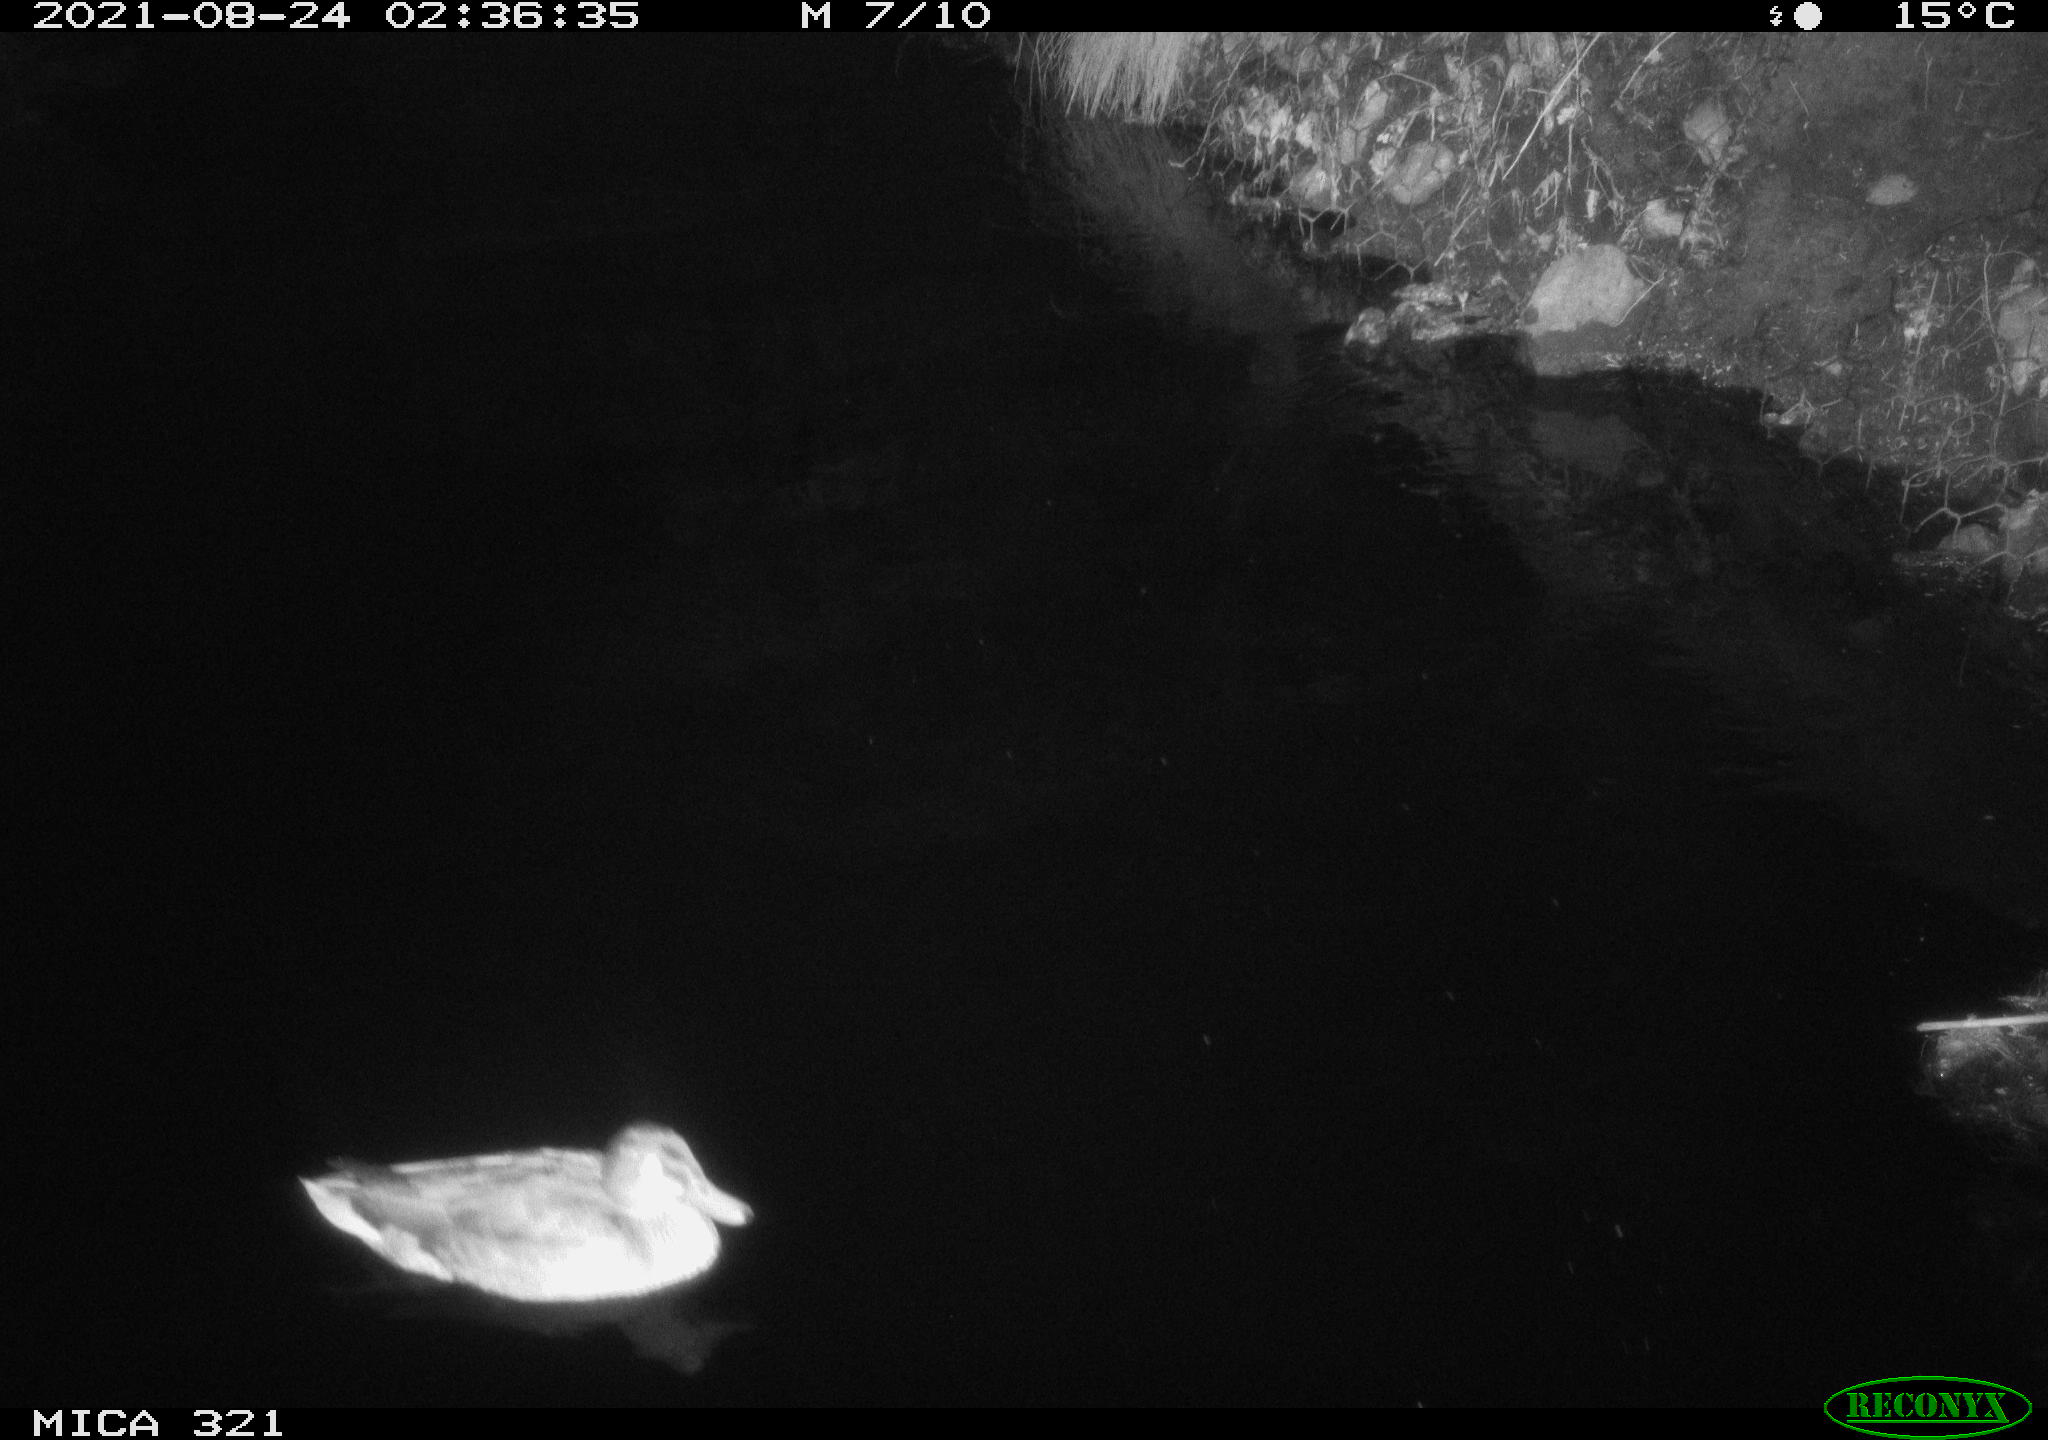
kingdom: Animalia
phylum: Chordata
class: Aves
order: Anseriformes
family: Anatidae
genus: Anas
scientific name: Anas platyrhynchos
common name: Mallard
